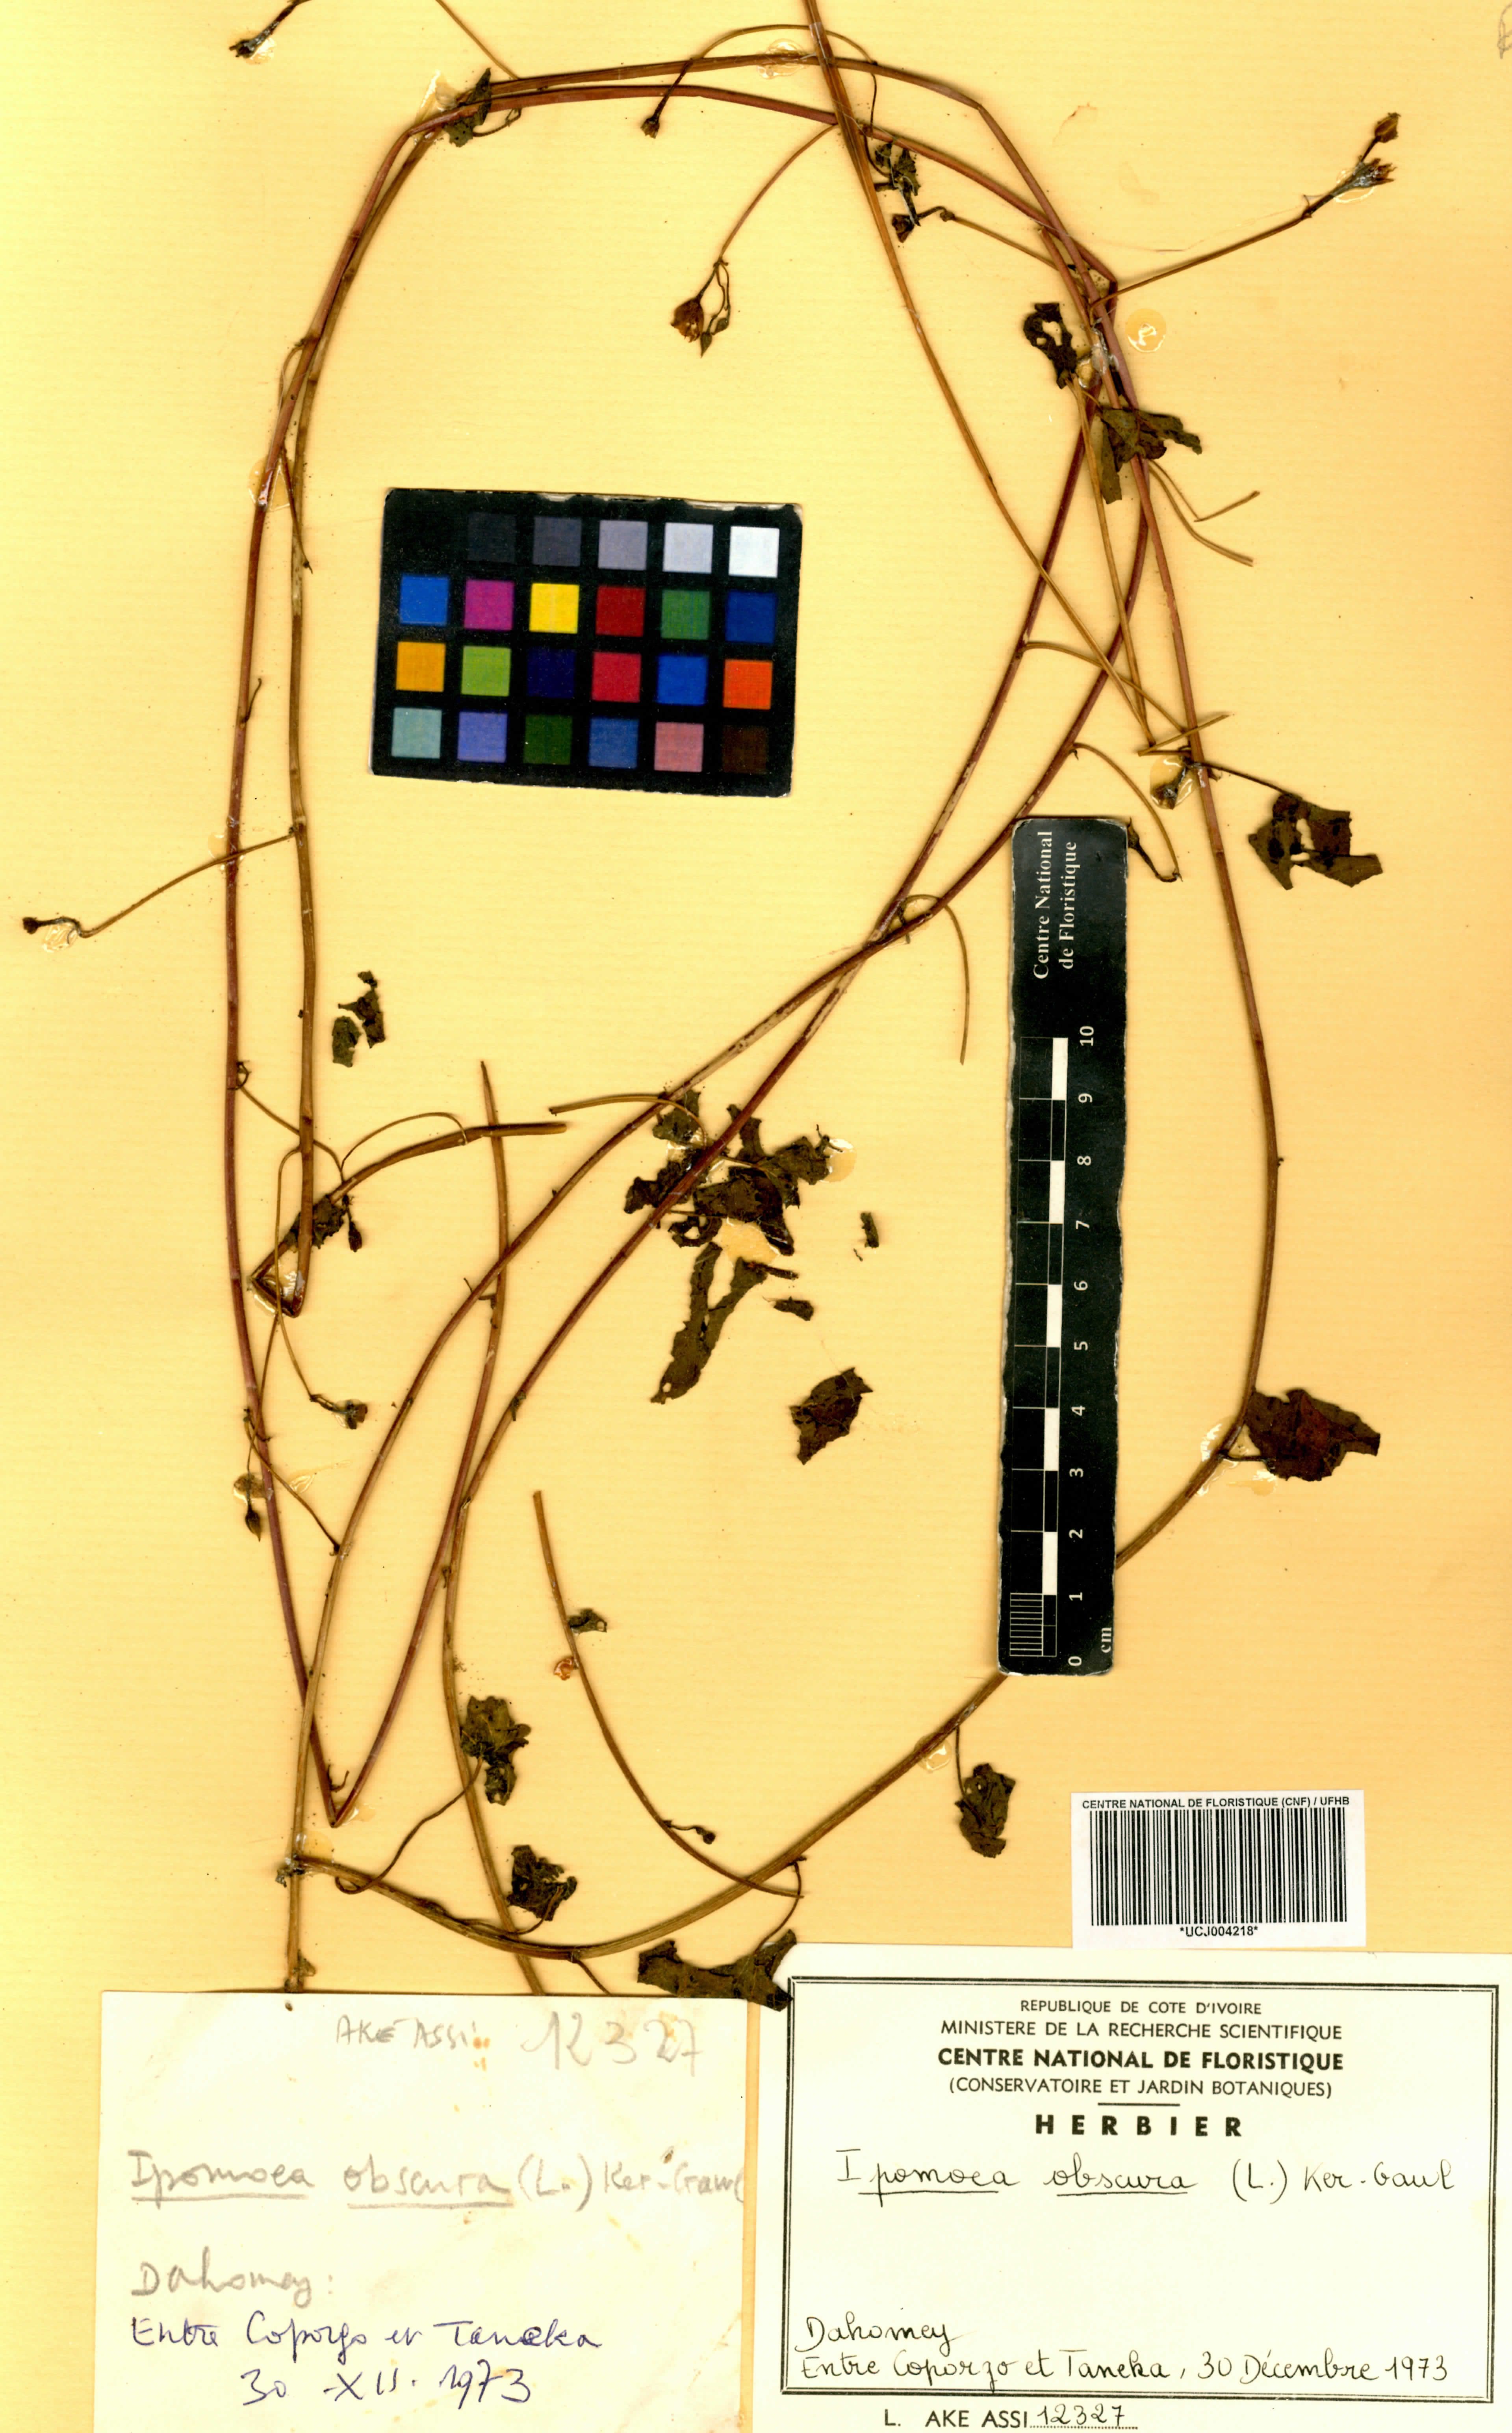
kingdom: Plantae
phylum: Tracheophyta
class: Magnoliopsida
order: Solanales
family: Convolvulaceae
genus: Ipomoea
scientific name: Ipomoea obscura
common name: Obscure morning-glory
